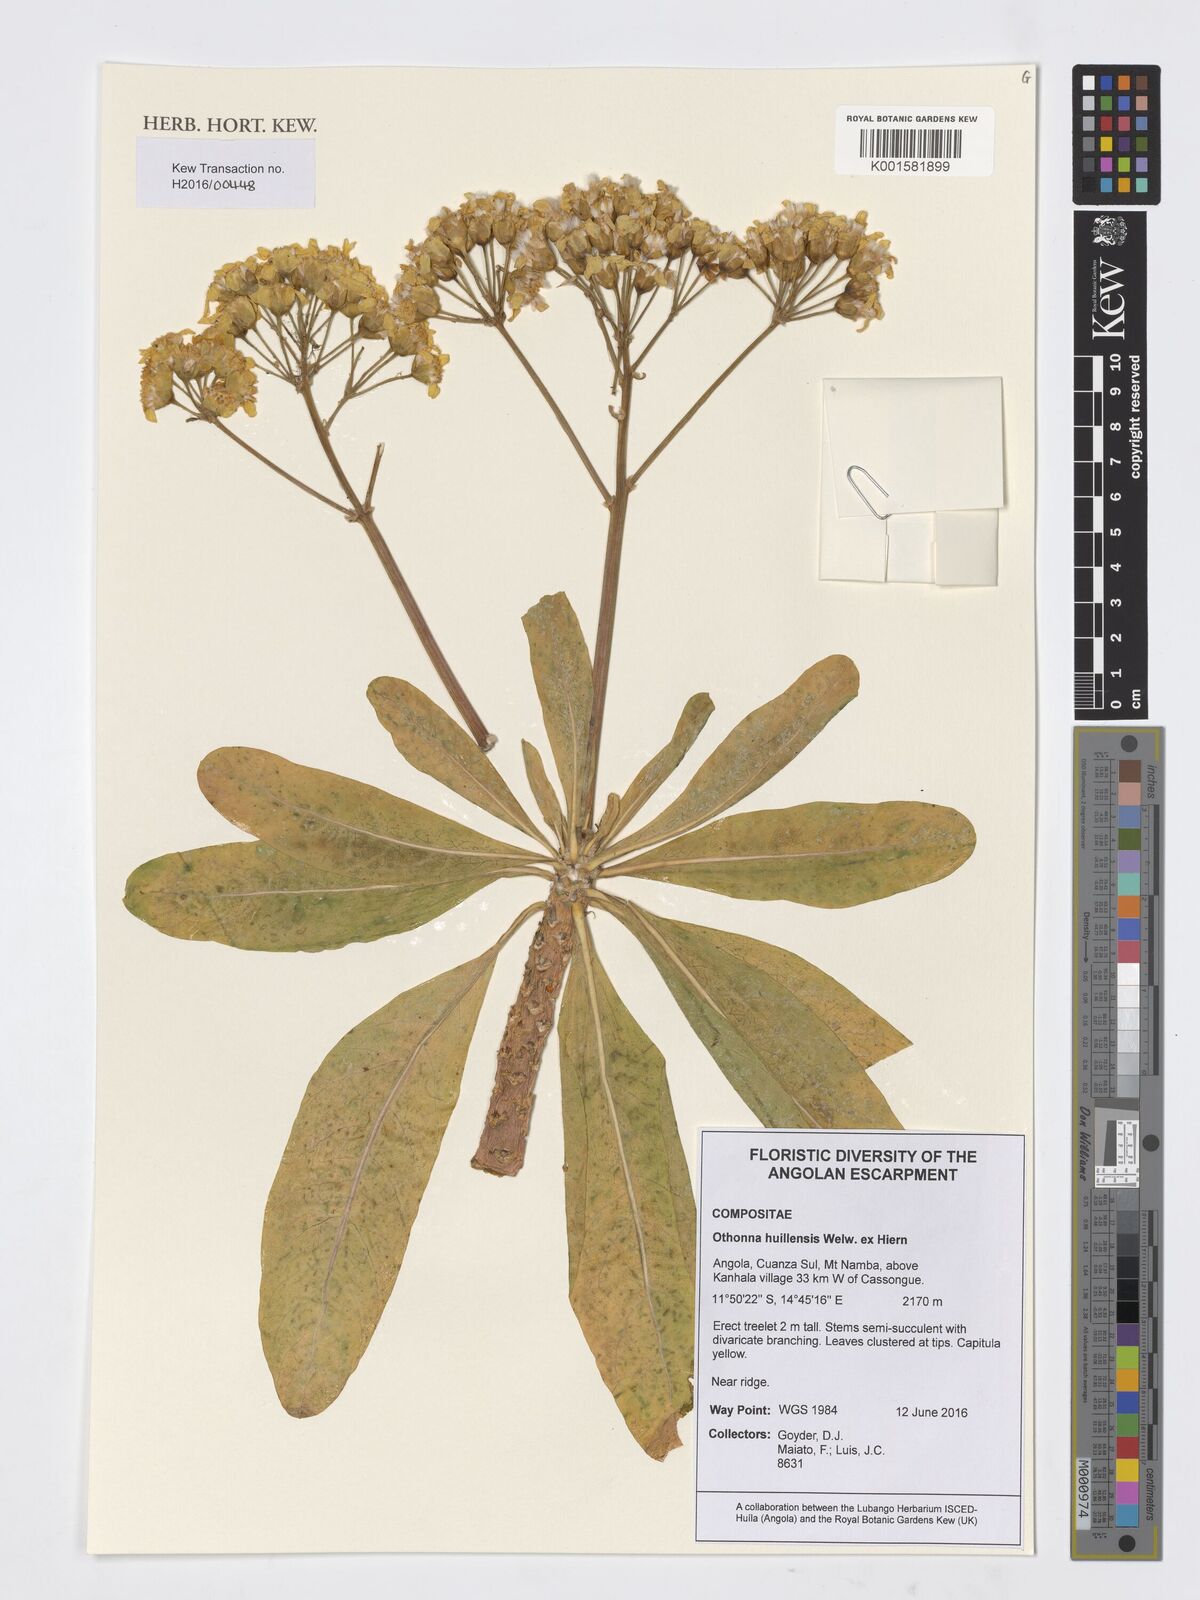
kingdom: Plantae
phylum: Tracheophyta
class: Magnoliopsida
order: Asterales
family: Asteraceae
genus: Othonna
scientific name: Othonna huillensis
